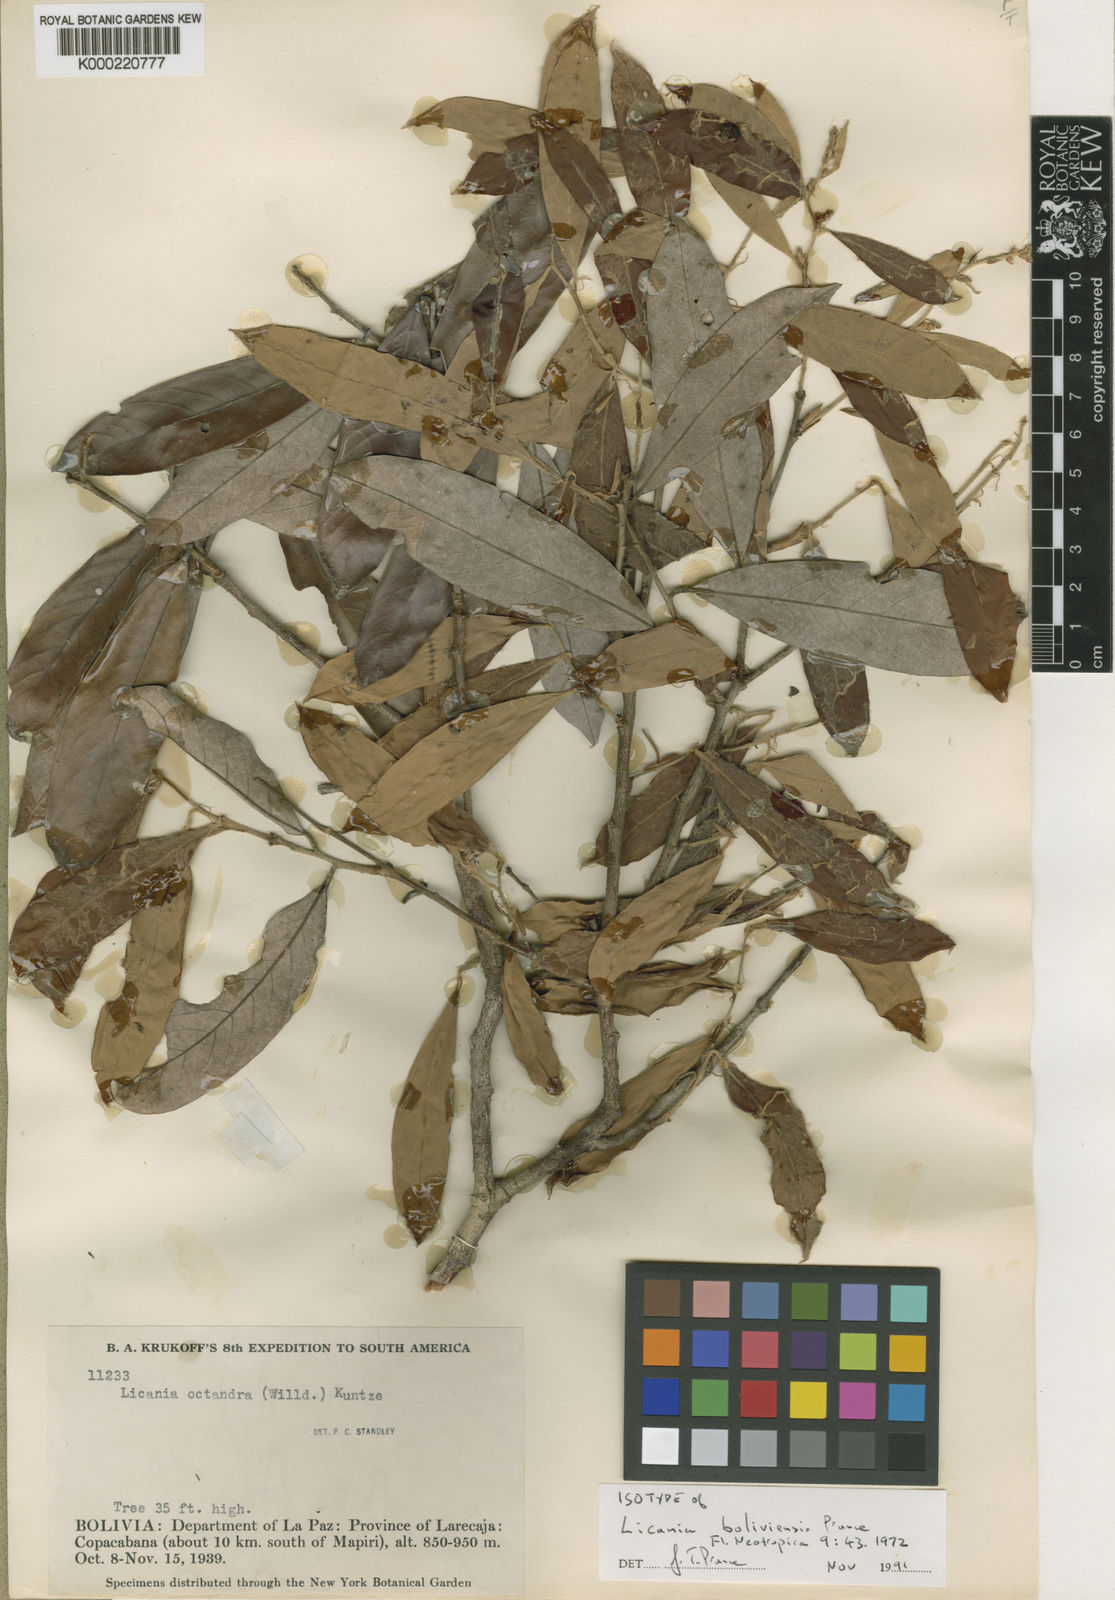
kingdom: Plantae
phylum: Tracheophyta
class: Magnoliopsida
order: Malpighiales
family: Chrysobalanaceae
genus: Licania
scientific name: Licania
